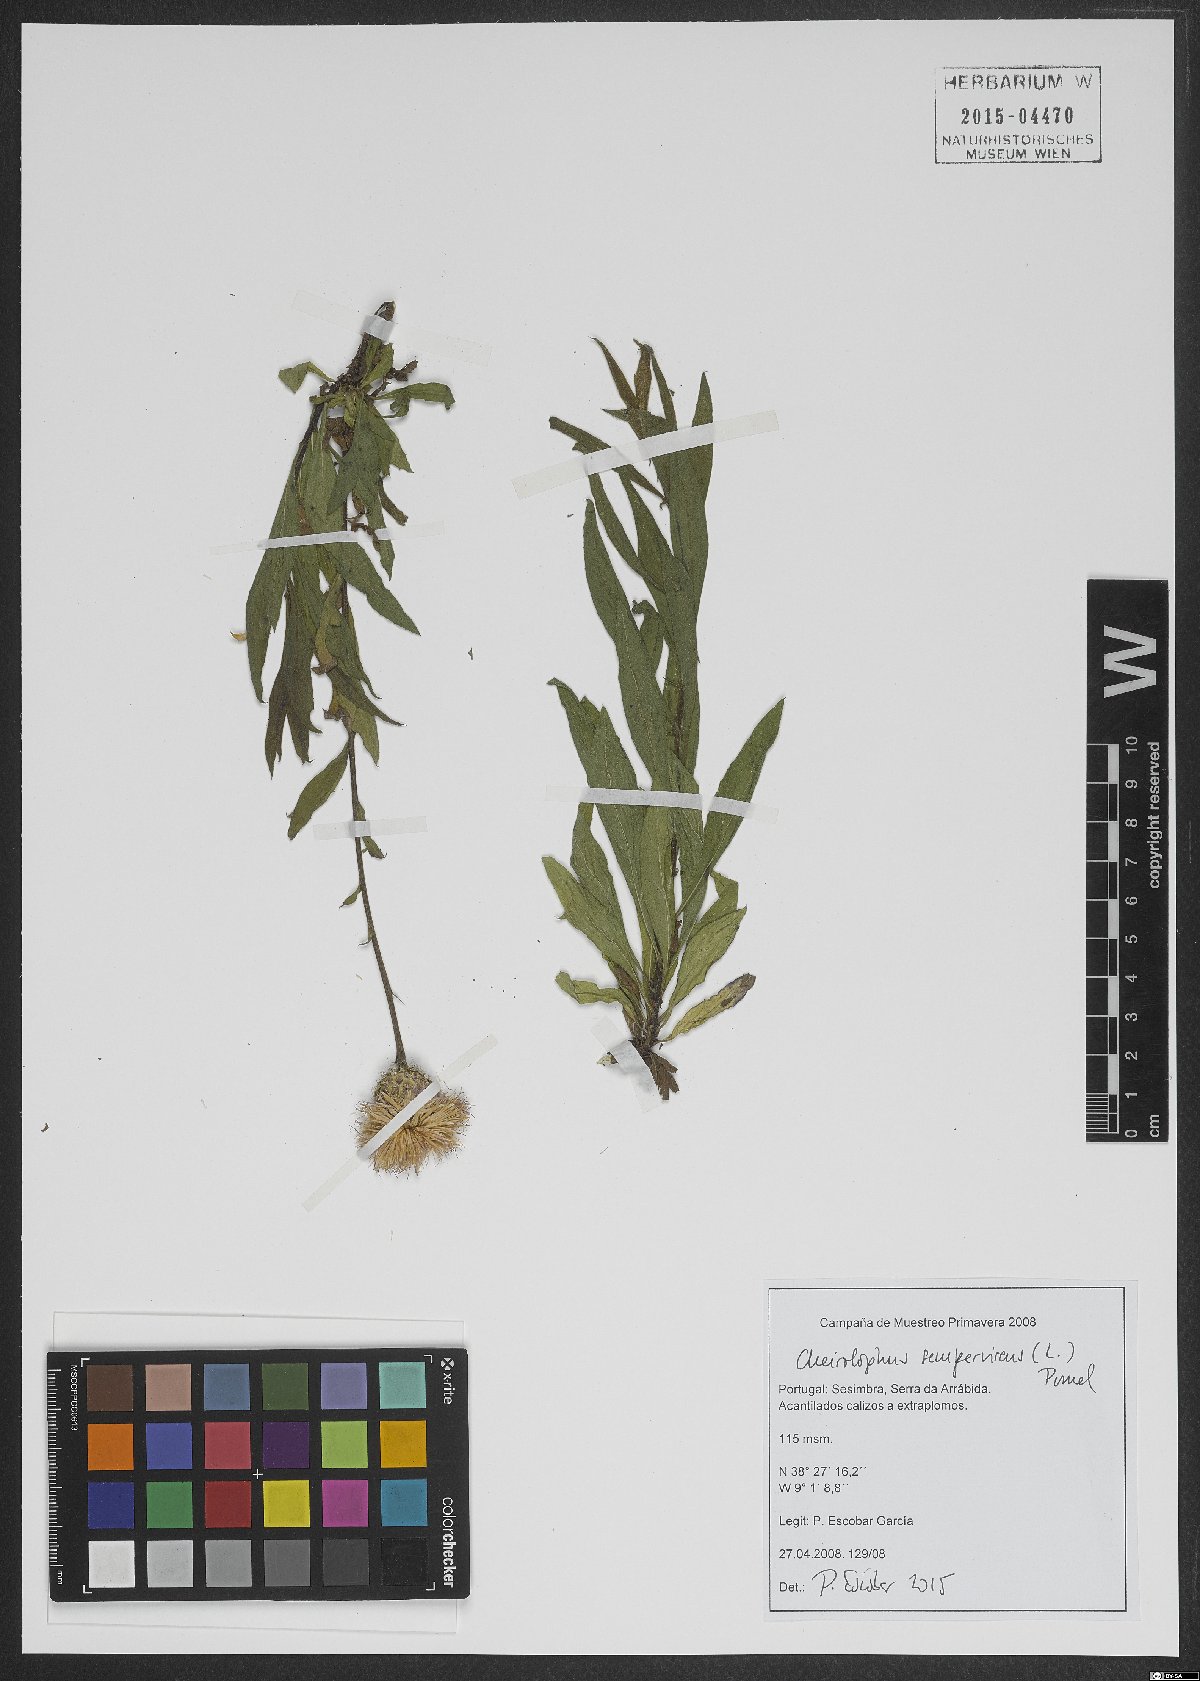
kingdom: Plantae
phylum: Tracheophyta
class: Magnoliopsida
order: Asterales
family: Asteraceae
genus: Cheirolophus
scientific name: Cheirolophus sempervirens
